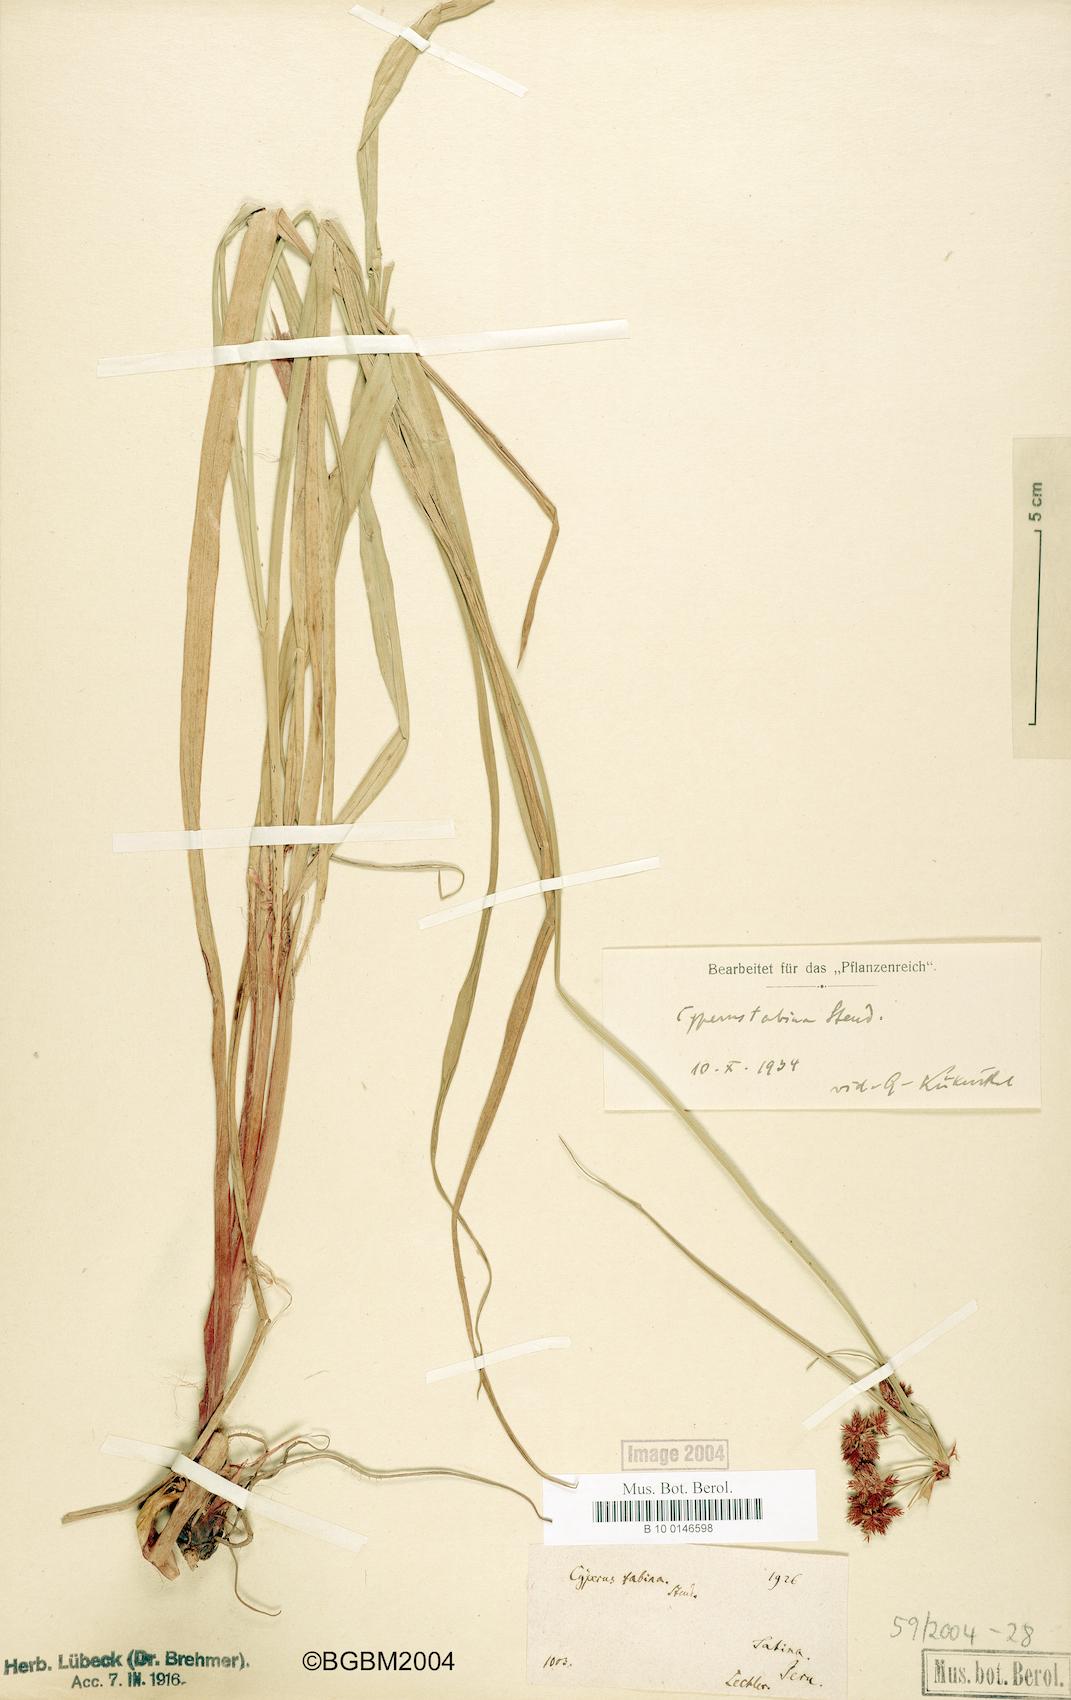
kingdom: Plantae
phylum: Tracheophyta
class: Liliopsida
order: Poales
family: Cyperaceae
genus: Cyperus
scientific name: Cyperus tabina
